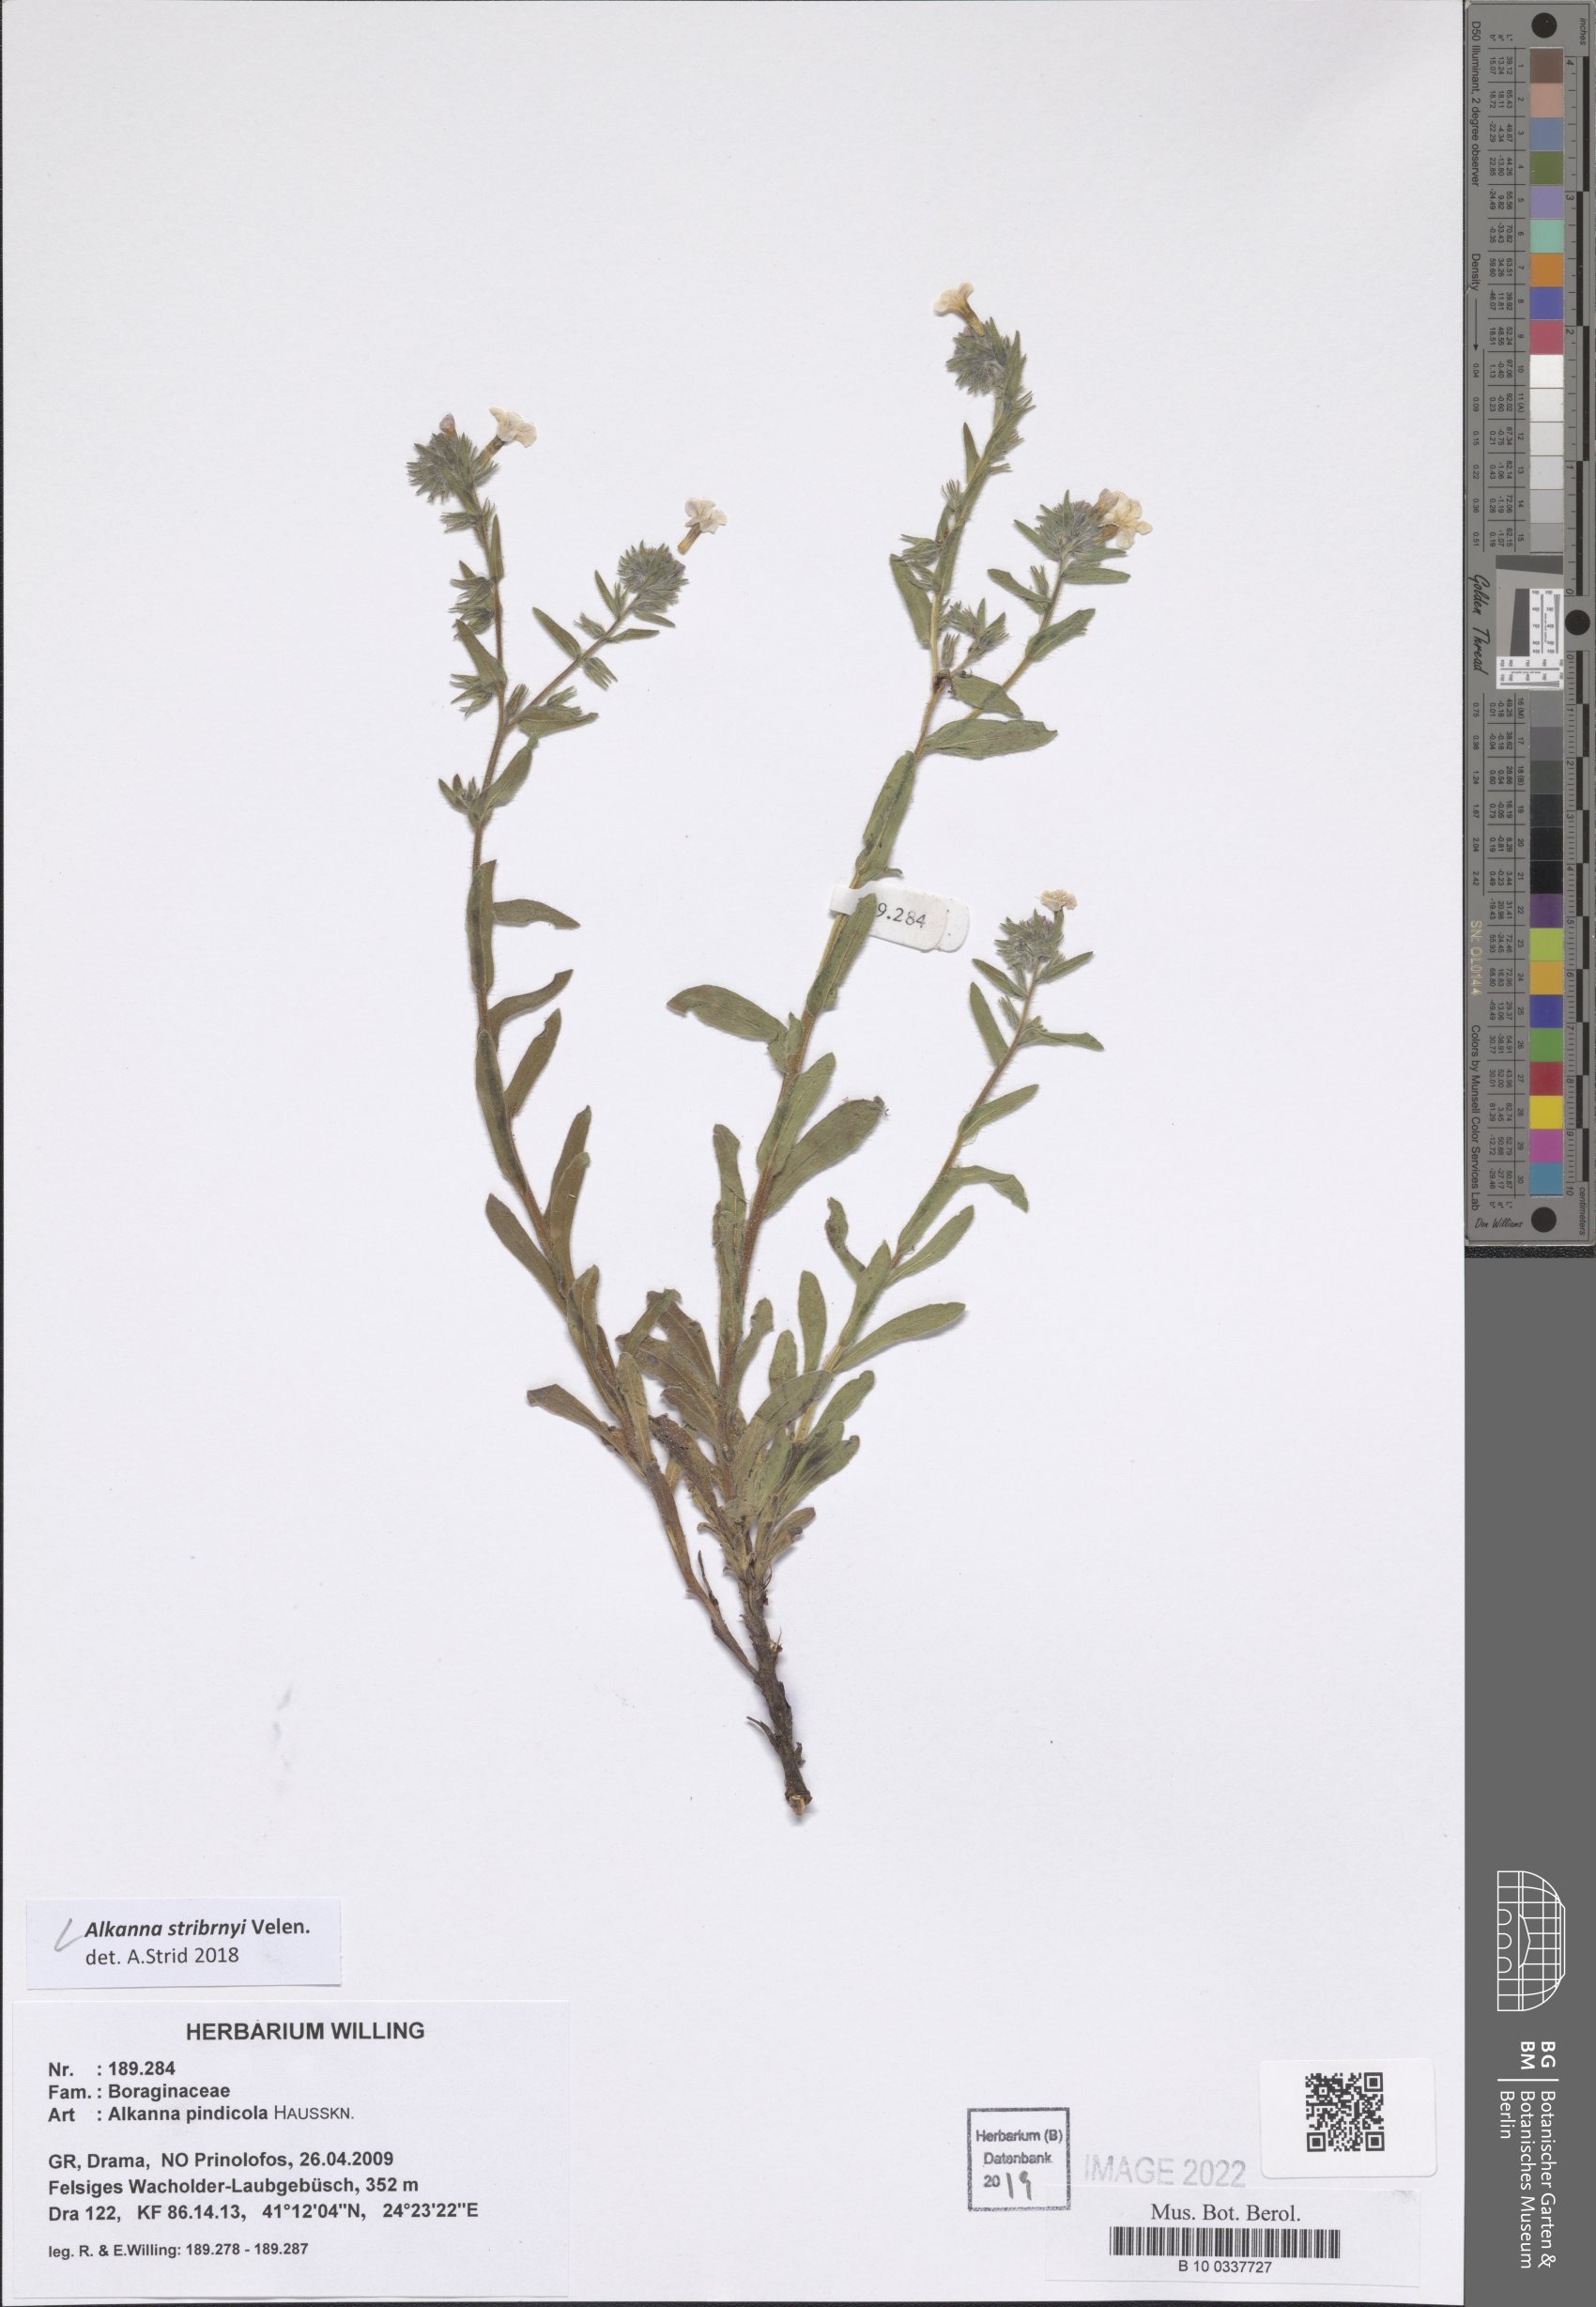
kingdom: Plantae
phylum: Tracheophyta
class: Magnoliopsida
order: Boraginales
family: Boraginaceae
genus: Alkanna
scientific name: Alkanna stribrnyi
